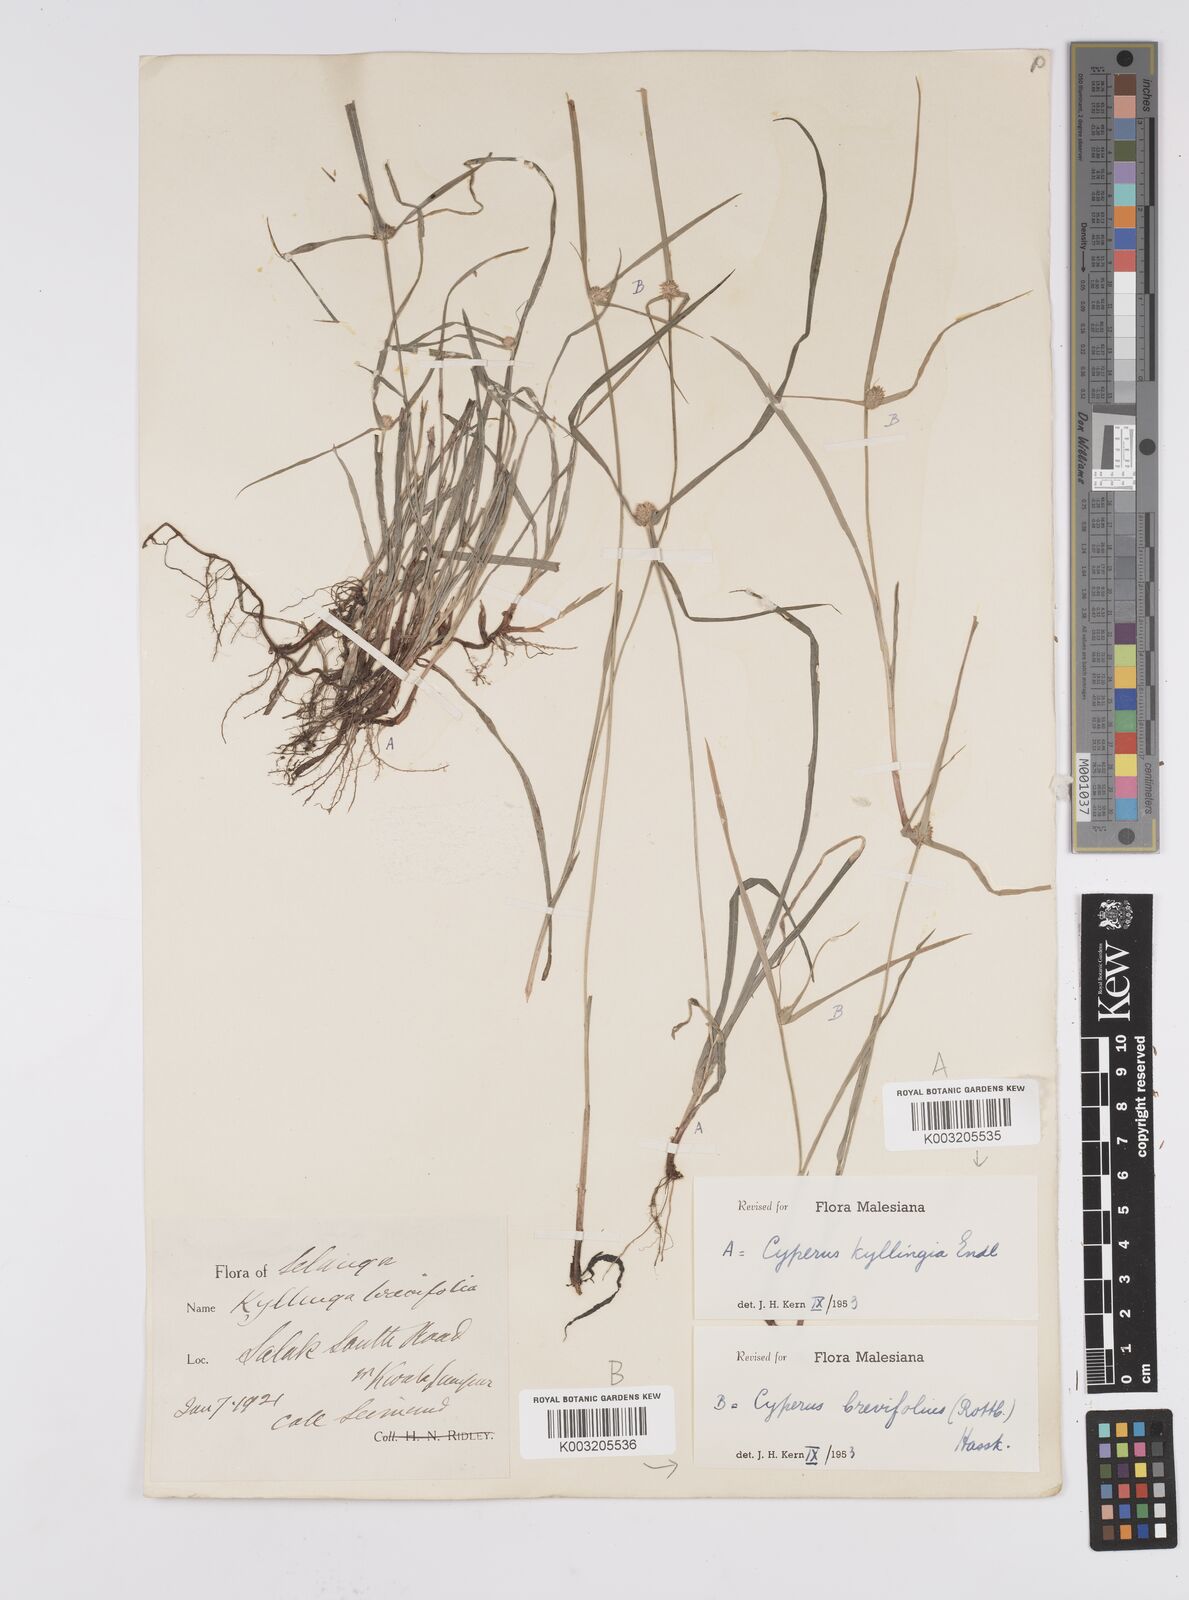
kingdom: Plantae
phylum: Tracheophyta
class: Liliopsida
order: Poales
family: Cyperaceae
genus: Cyperus
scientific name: Cyperus
